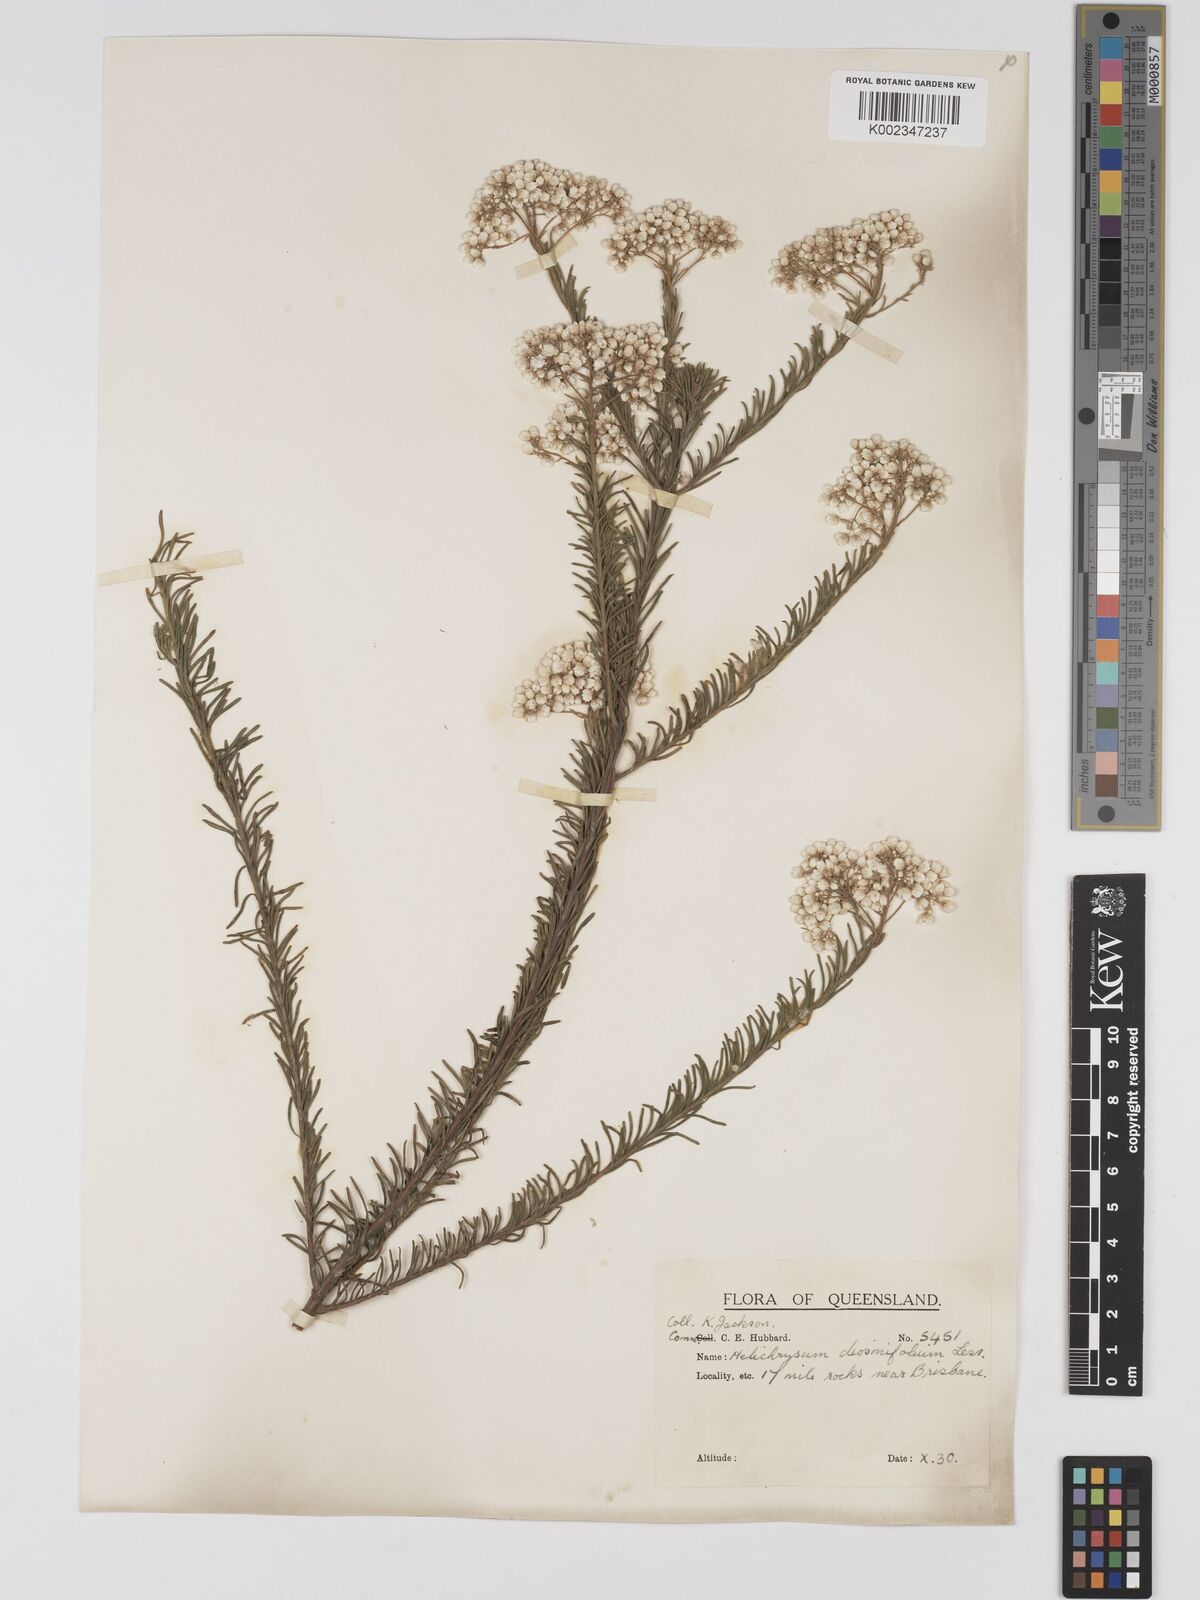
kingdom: Plantae
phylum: Tracheophyta
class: Magnoliopsida
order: Asterales
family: Asteraceae
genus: Ozothamnus
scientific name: Ozothamnus diosmifolius
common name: White-dogwood
